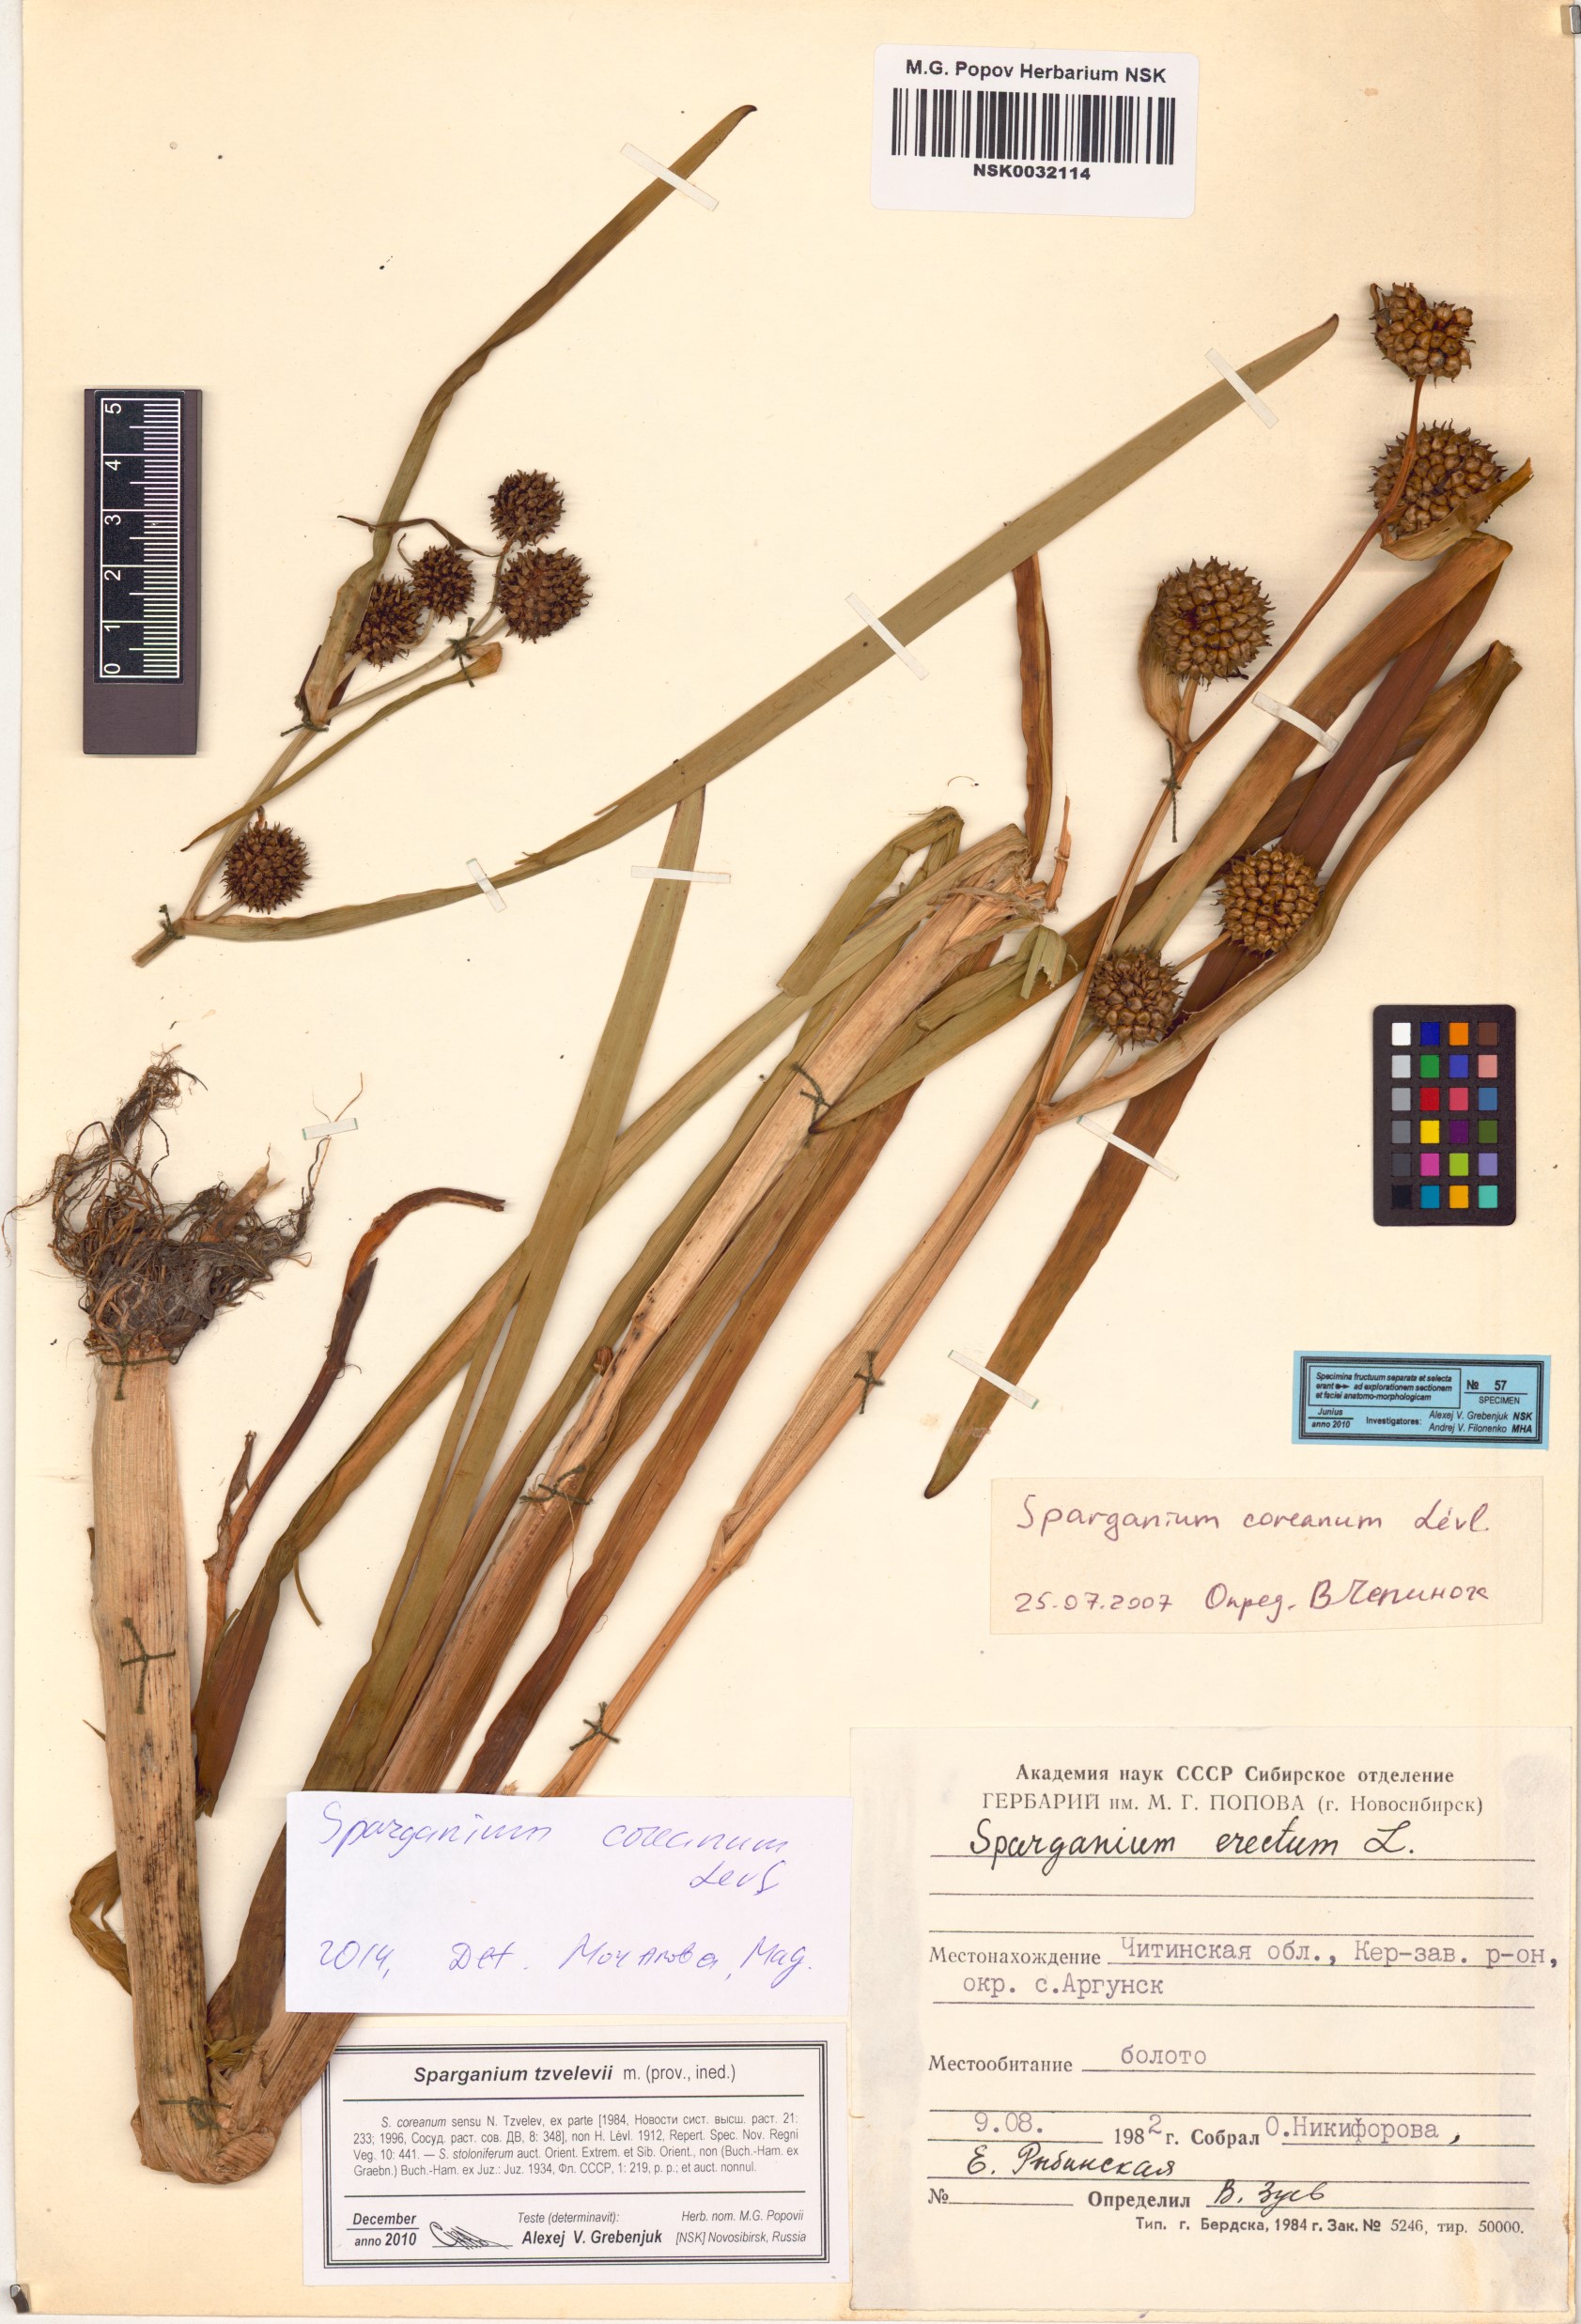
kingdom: Plantae
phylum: Tracheophyta
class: Liliopsida
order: Poales
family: Typhaceae
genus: Sparganium
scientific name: Sparganium eurycarpum
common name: Broad-fruited burreed
